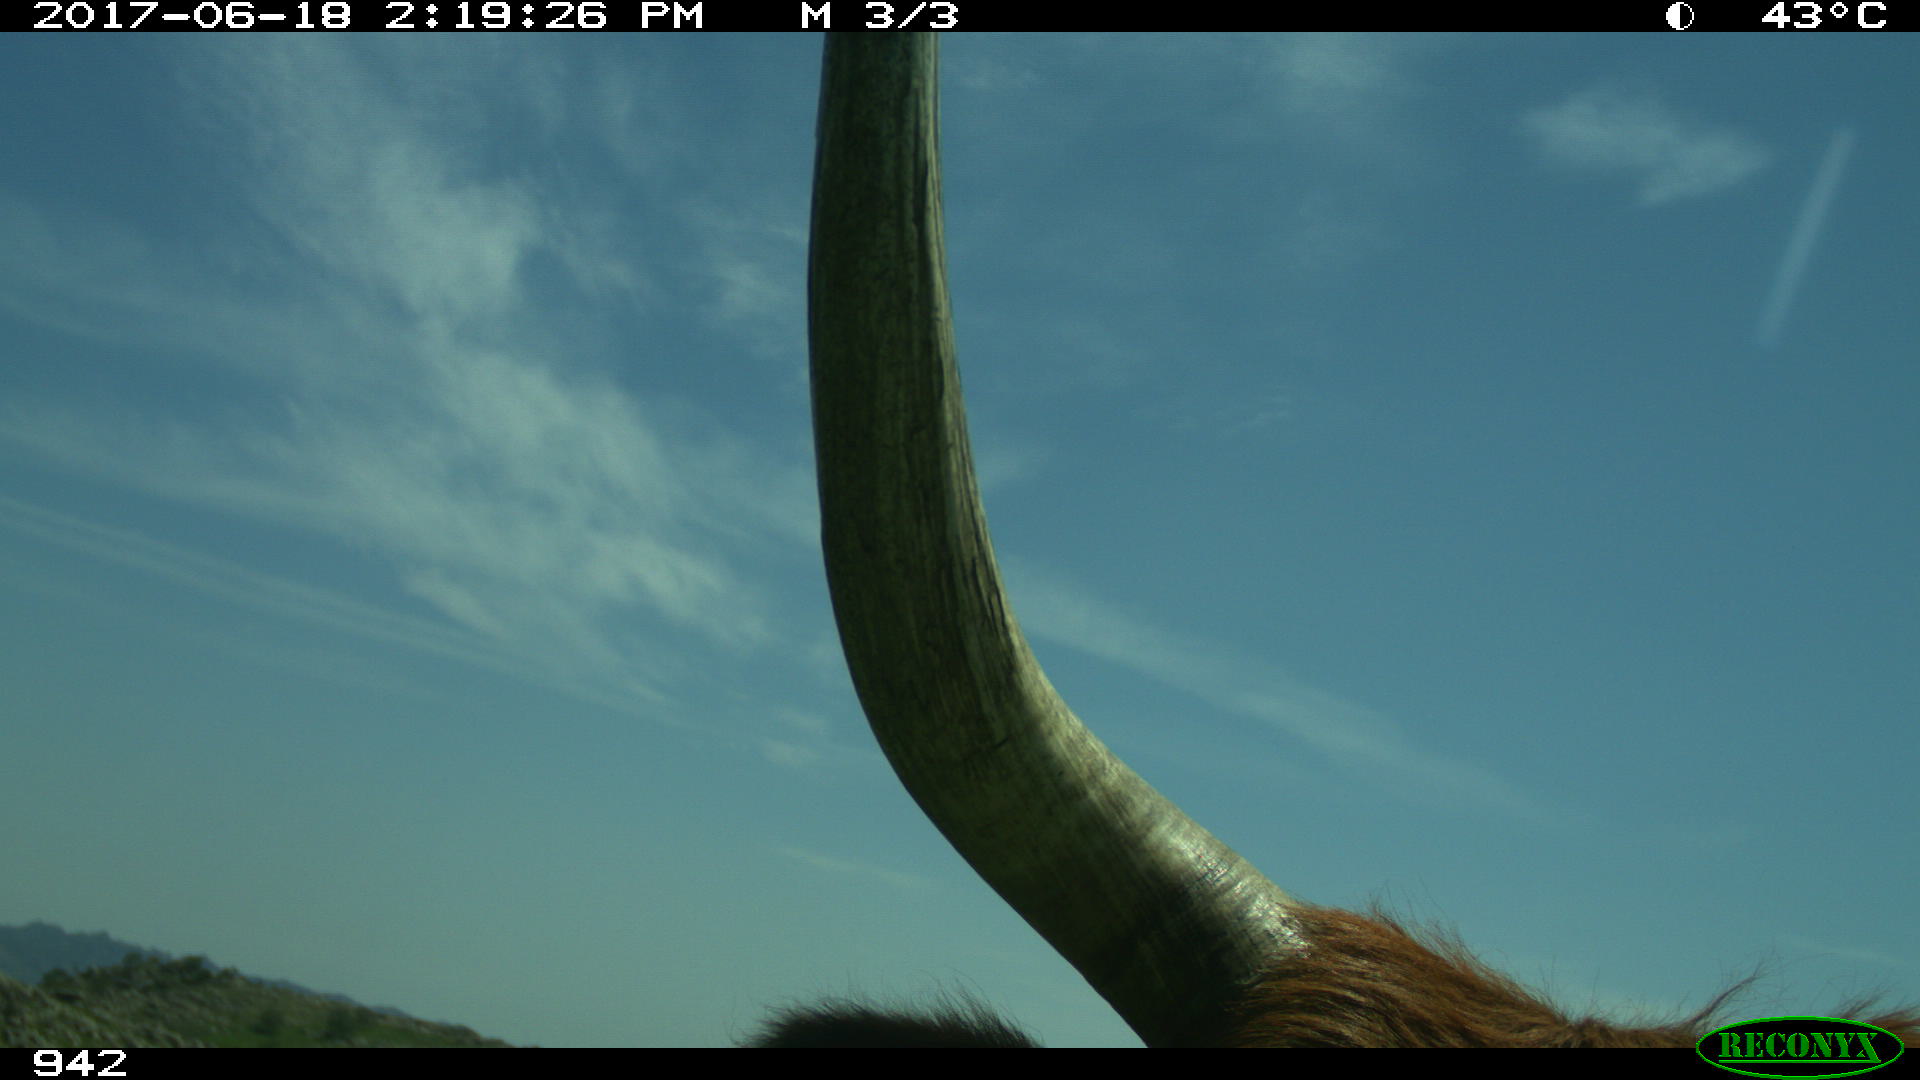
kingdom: Animalia
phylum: Chordata
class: Mammalia
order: Artiodactyla
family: Bovidae
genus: Bos
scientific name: Bos taurus
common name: Domesticated cattle
